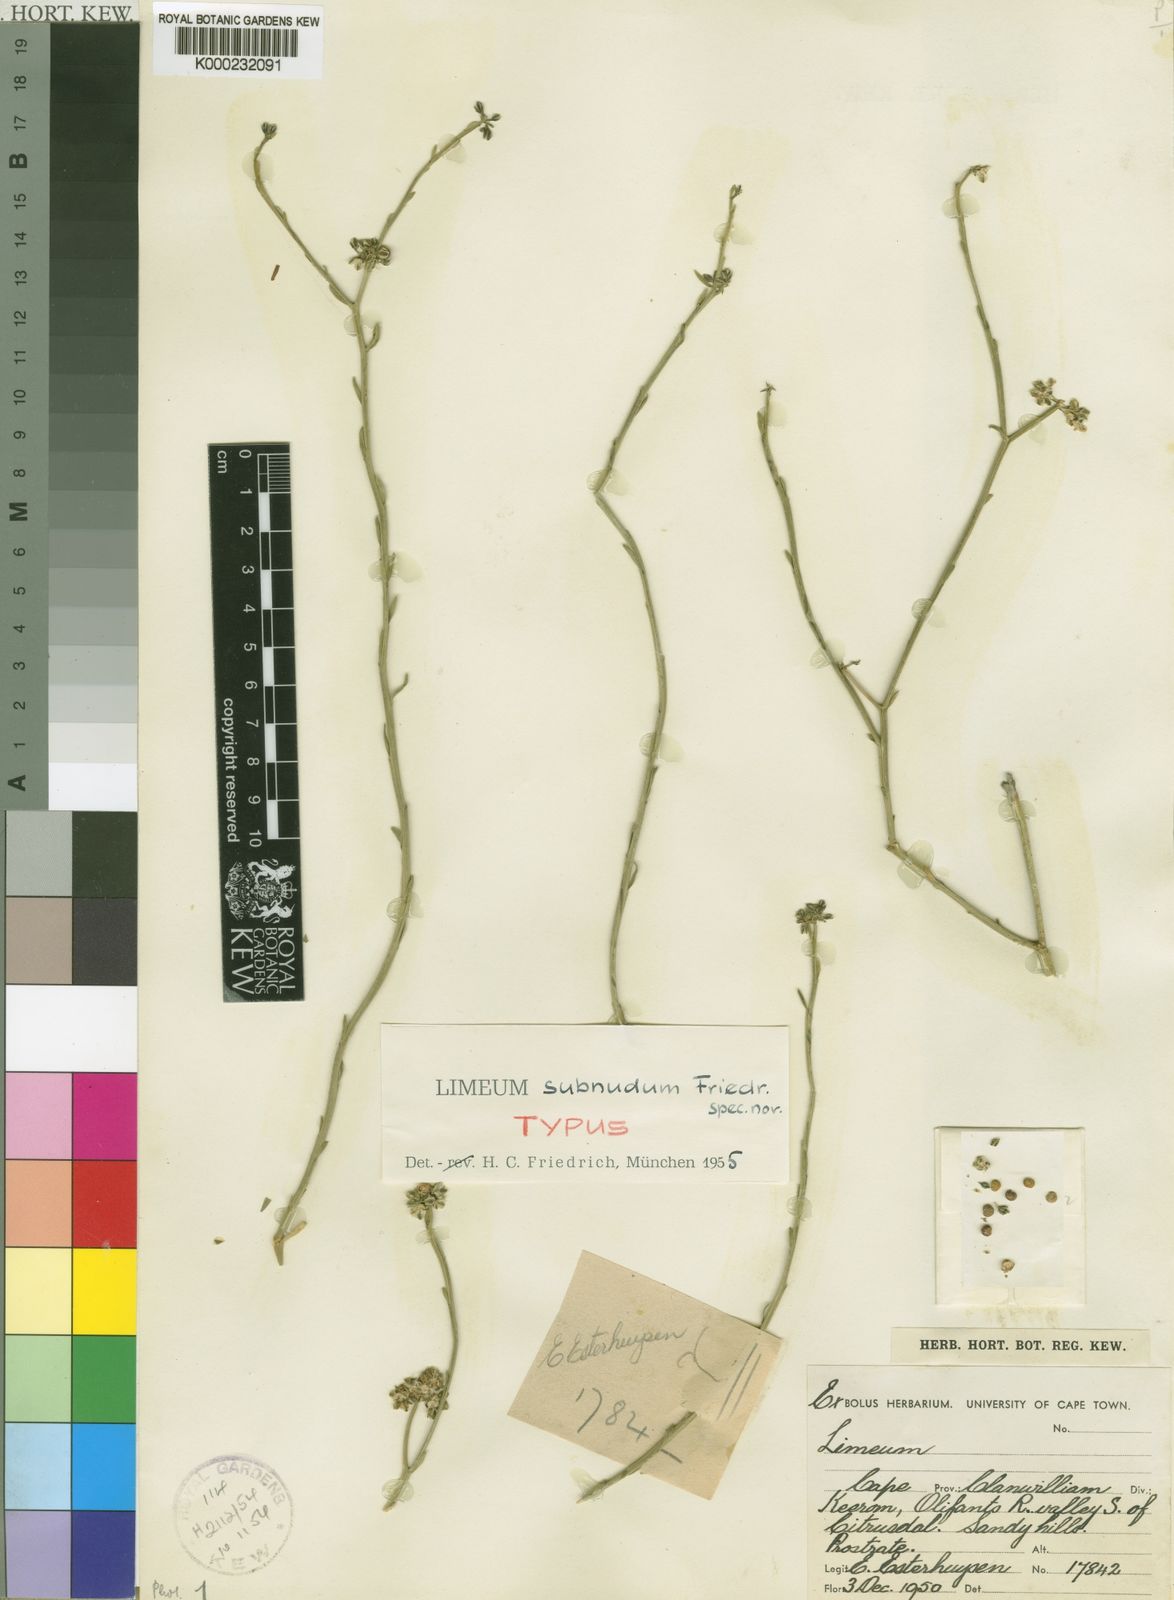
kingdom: Plantae
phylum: Tracheophyta
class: Magnoliopsida
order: Caryophyllales
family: Limeaceae
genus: Limeum
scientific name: Limeum subnudum
